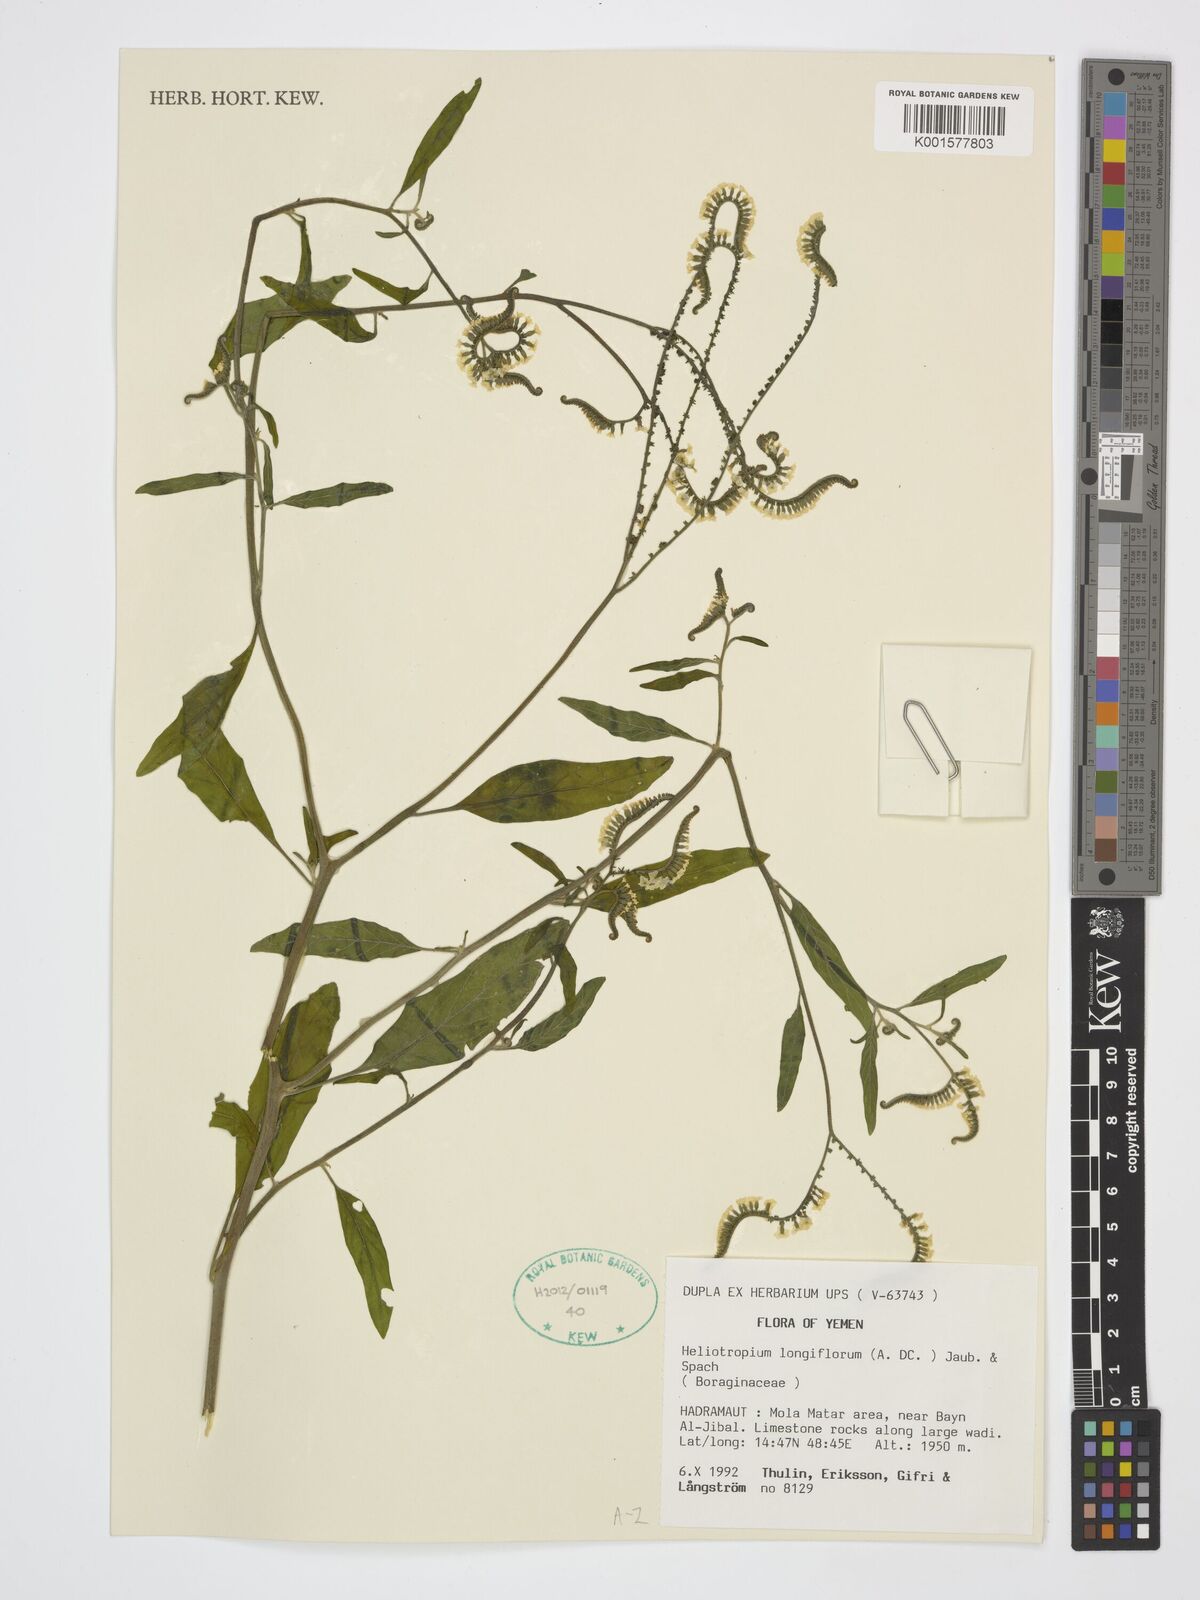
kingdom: Plantae
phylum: Tracheophyta
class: Magnoliopsida
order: Boraginales
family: Heliotropiaceae
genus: Heliotropium
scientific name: Heliotropium longiflorum
